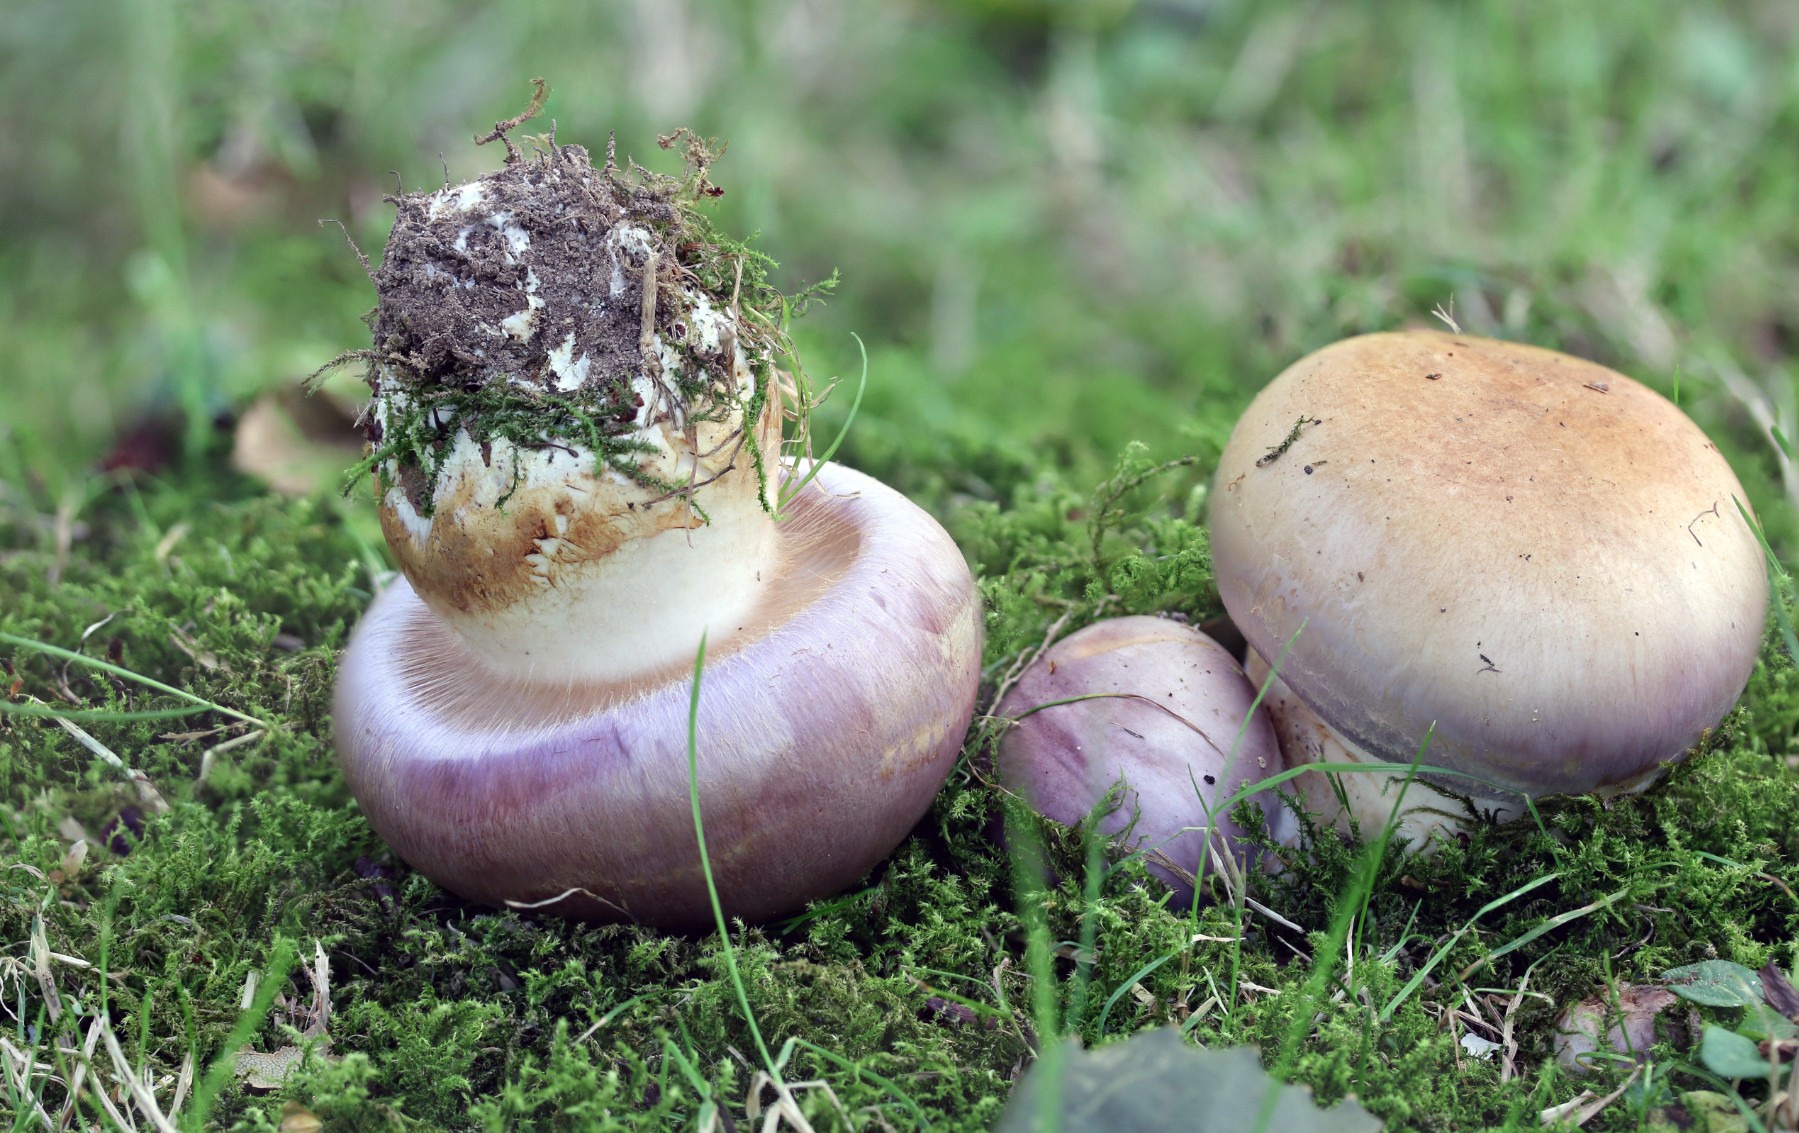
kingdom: Fungi
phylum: Basidiomycota
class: Agaricomycetes
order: Agaricales
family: Cortinariaceae
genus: Phlegmacium
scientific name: Phlegmacium balteatocumatile
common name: violettrådet slørhat
